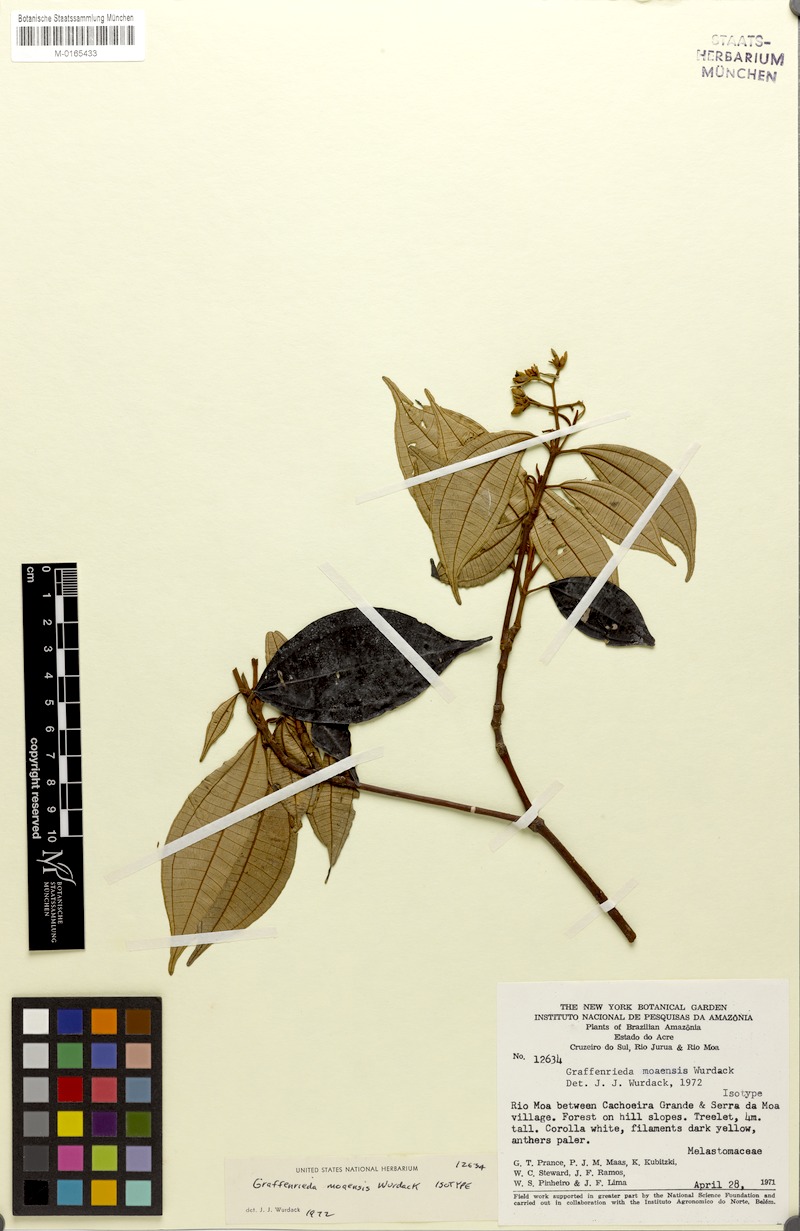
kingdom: Plantae
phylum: Tracheophyta
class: Magnoliopsida
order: Myrtales
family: Melastomataceae
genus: Graffenrieda
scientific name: Graffenrieda moaensis
